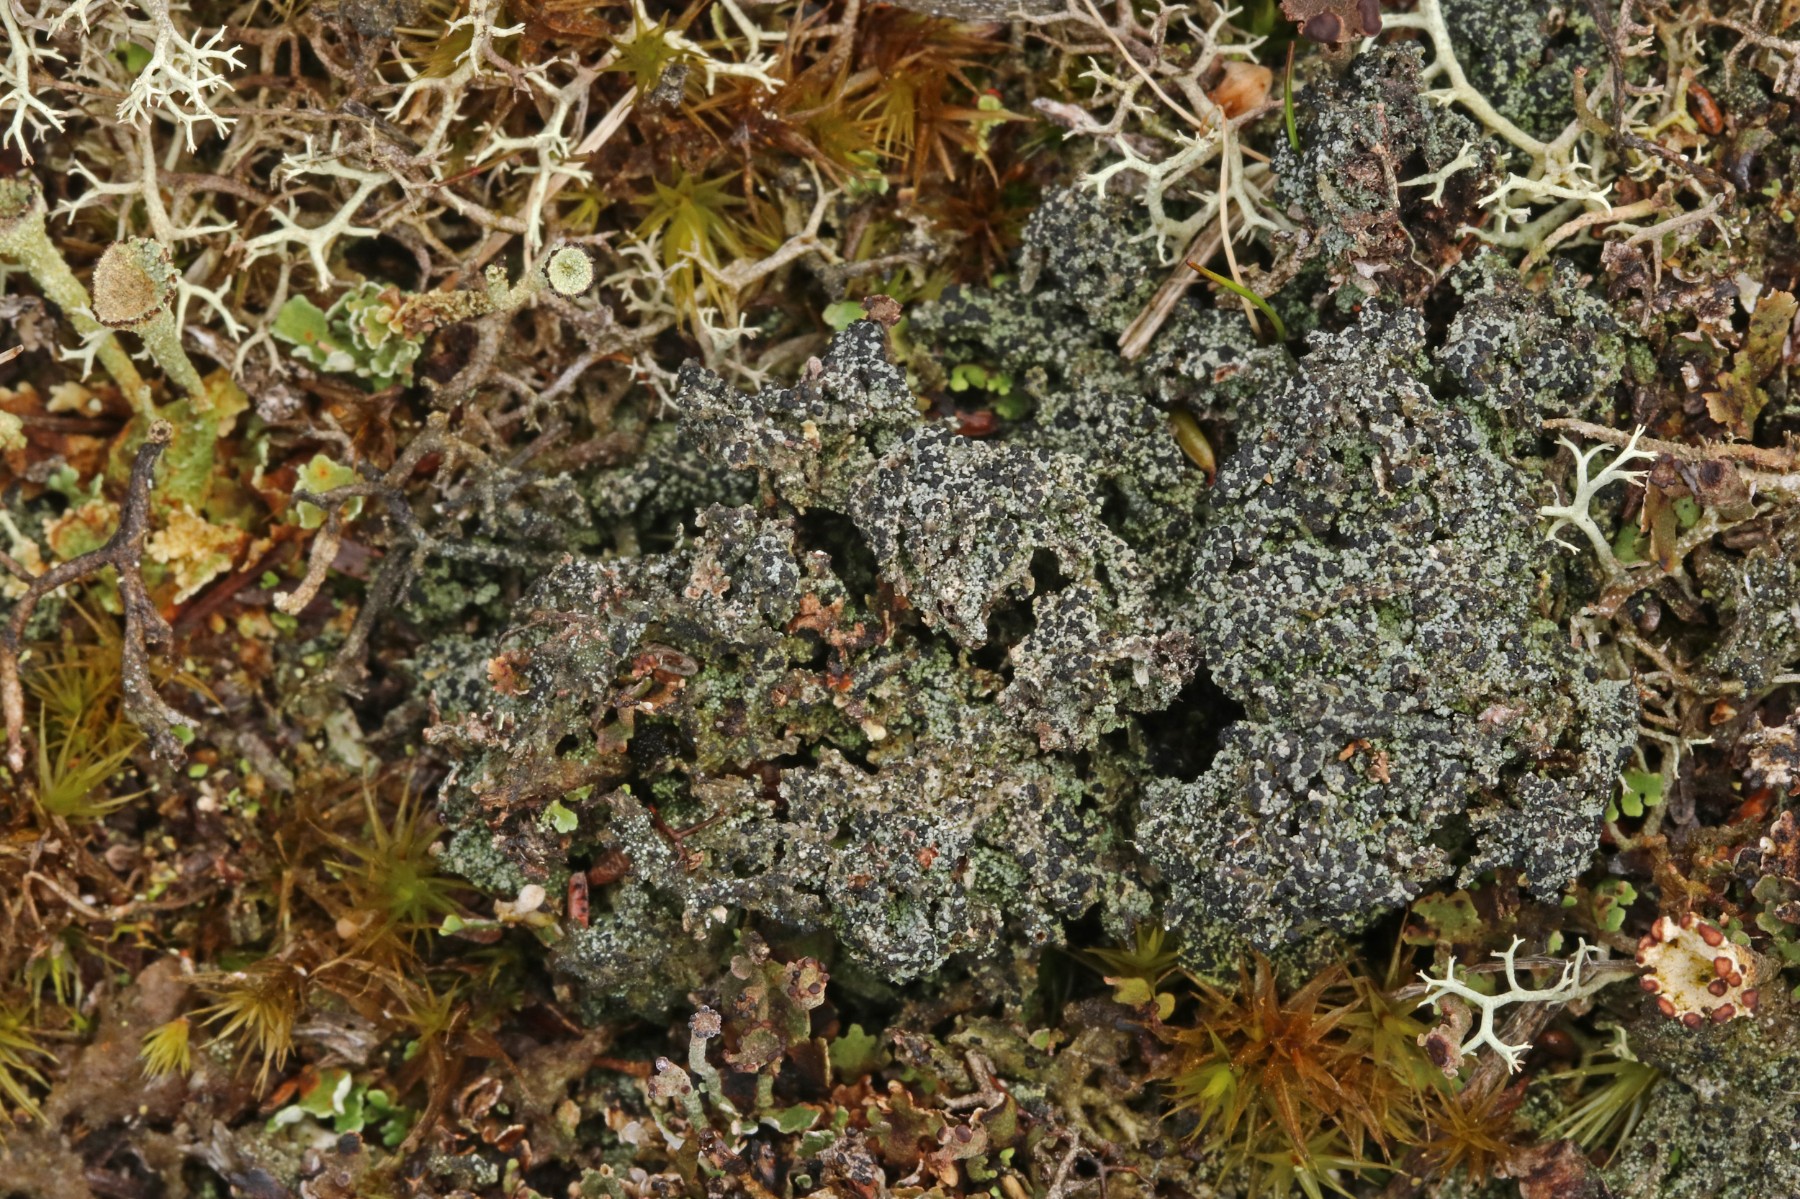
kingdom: Fungi
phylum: Ascomycota
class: Lecanoromycetes
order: Lecanorales
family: Byssolomataceae
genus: Micarea
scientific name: Micarea lignaria
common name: tørve-knaplav
